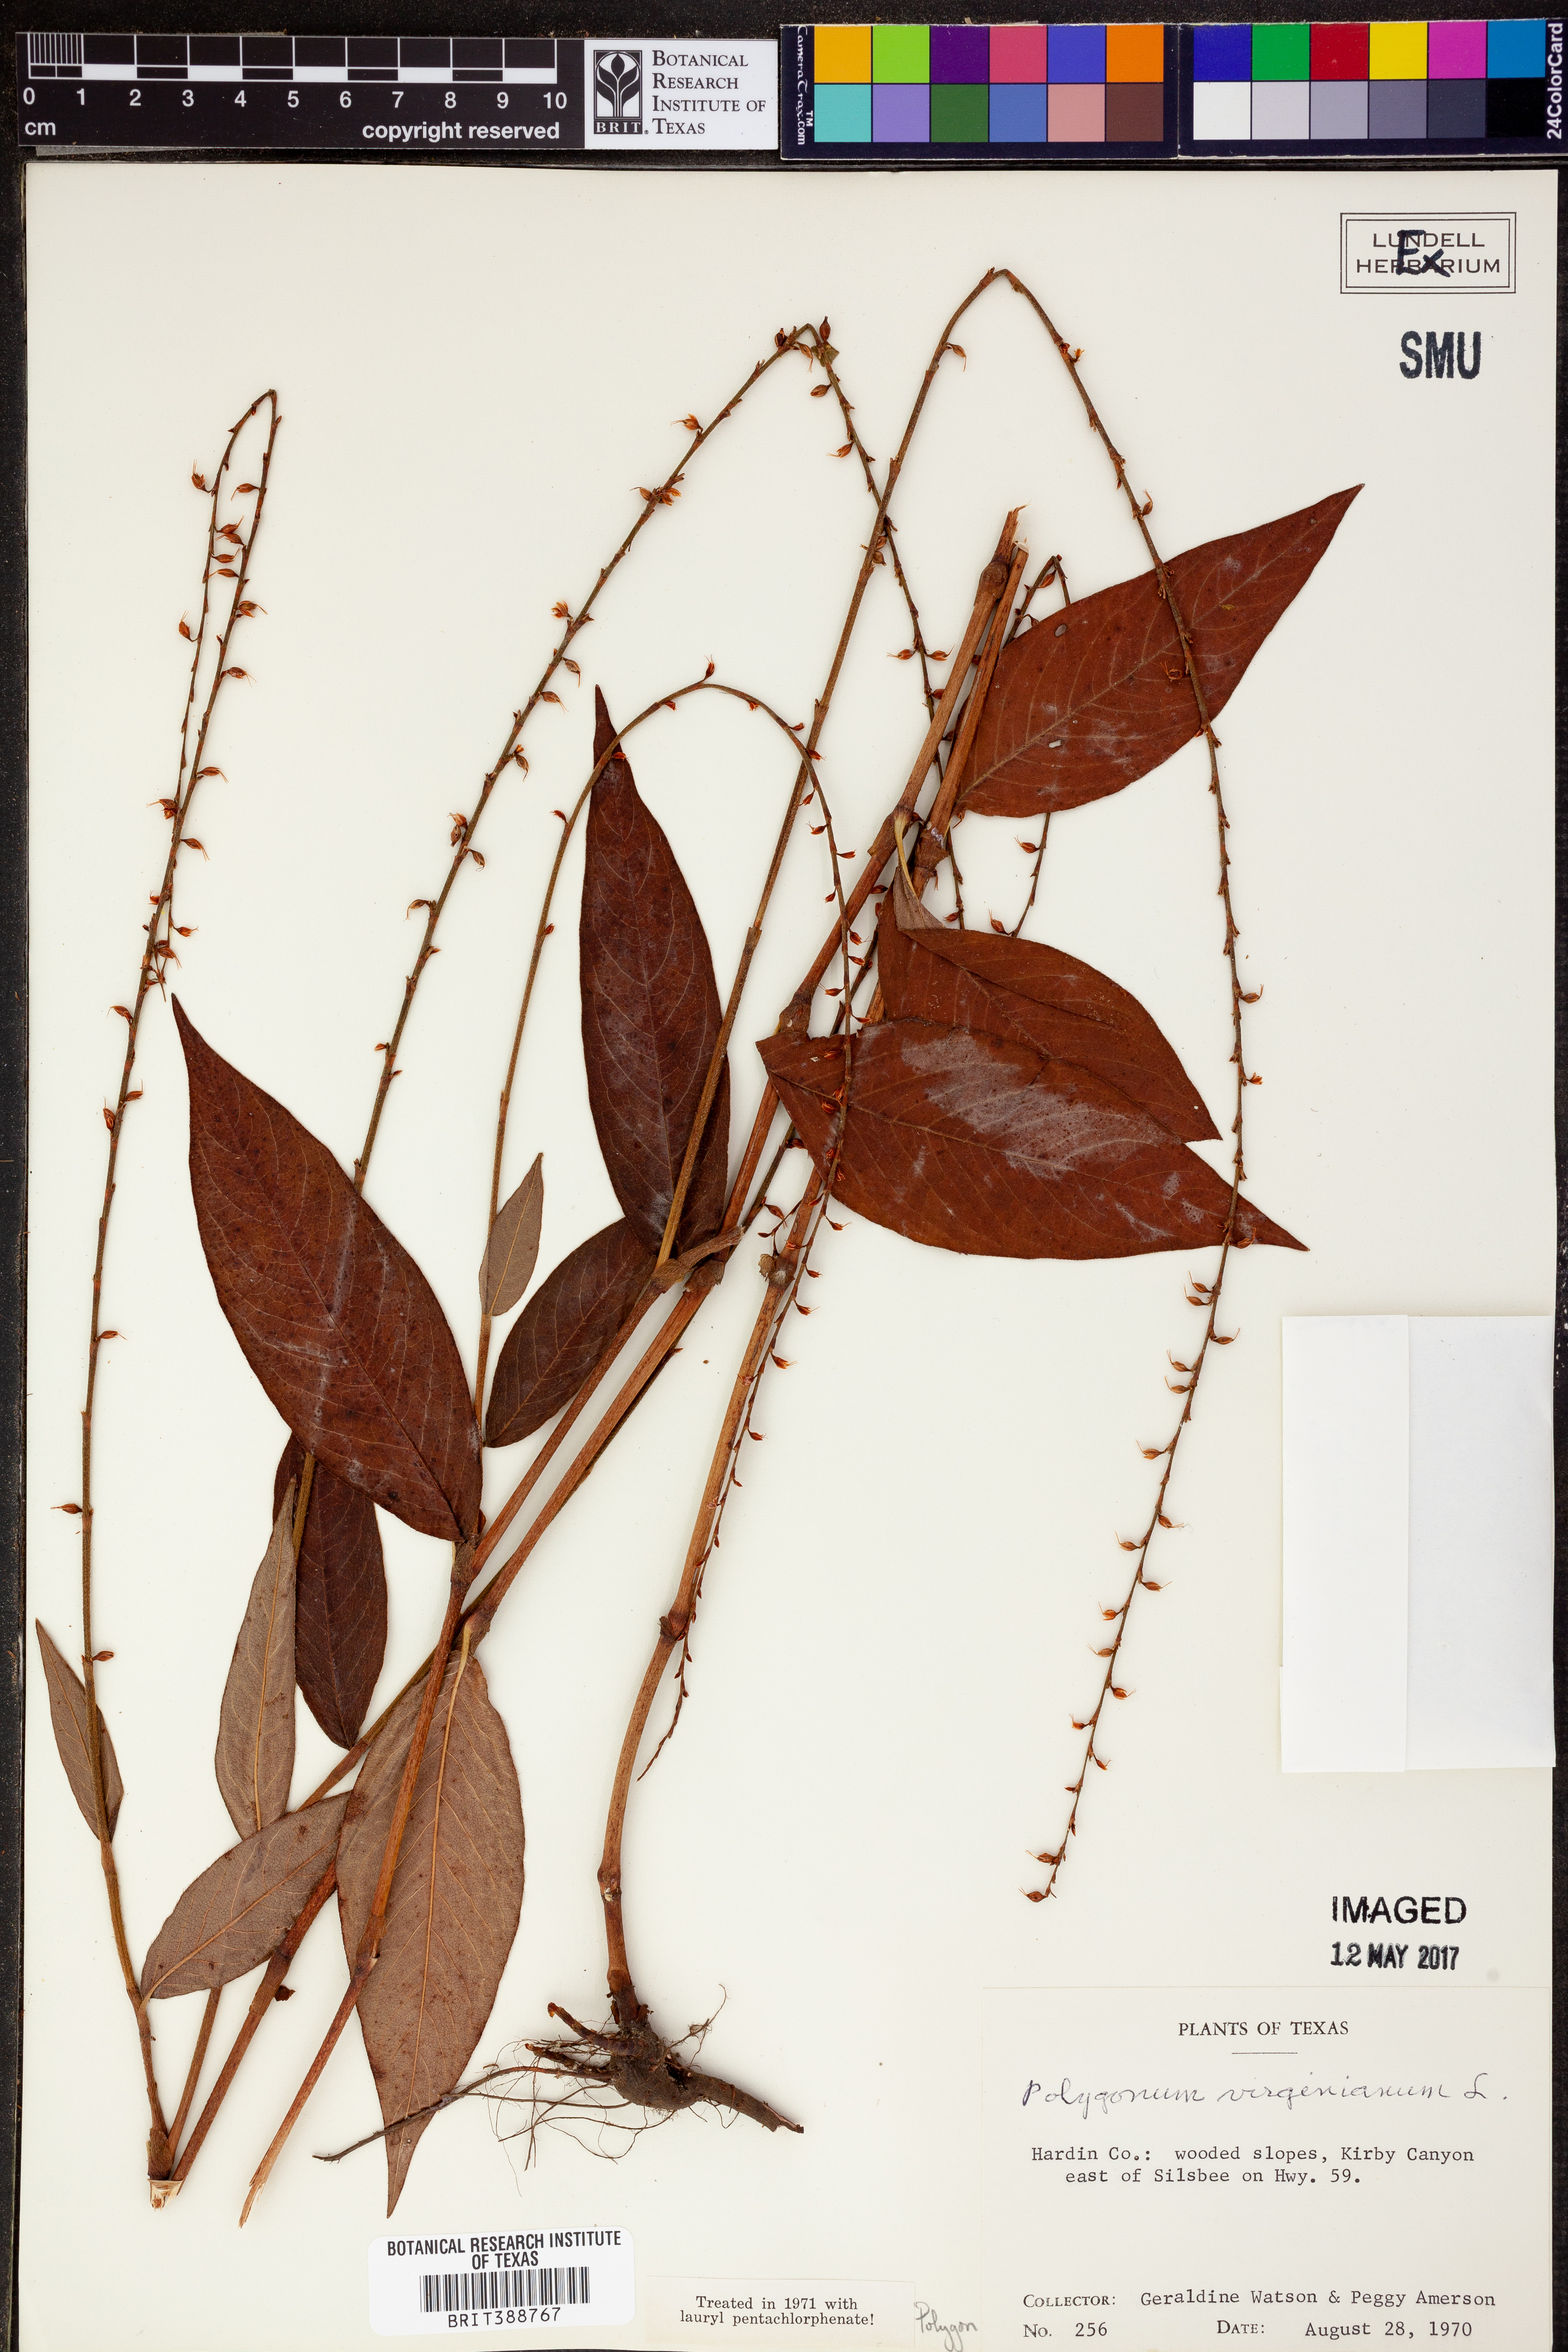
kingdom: Plantae
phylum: Tracheophyta
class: Magnoliopsida
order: Caryophyllales
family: Polygonaceae
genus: Persicaria
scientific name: Persicaria virginiana
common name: Jumpseed
